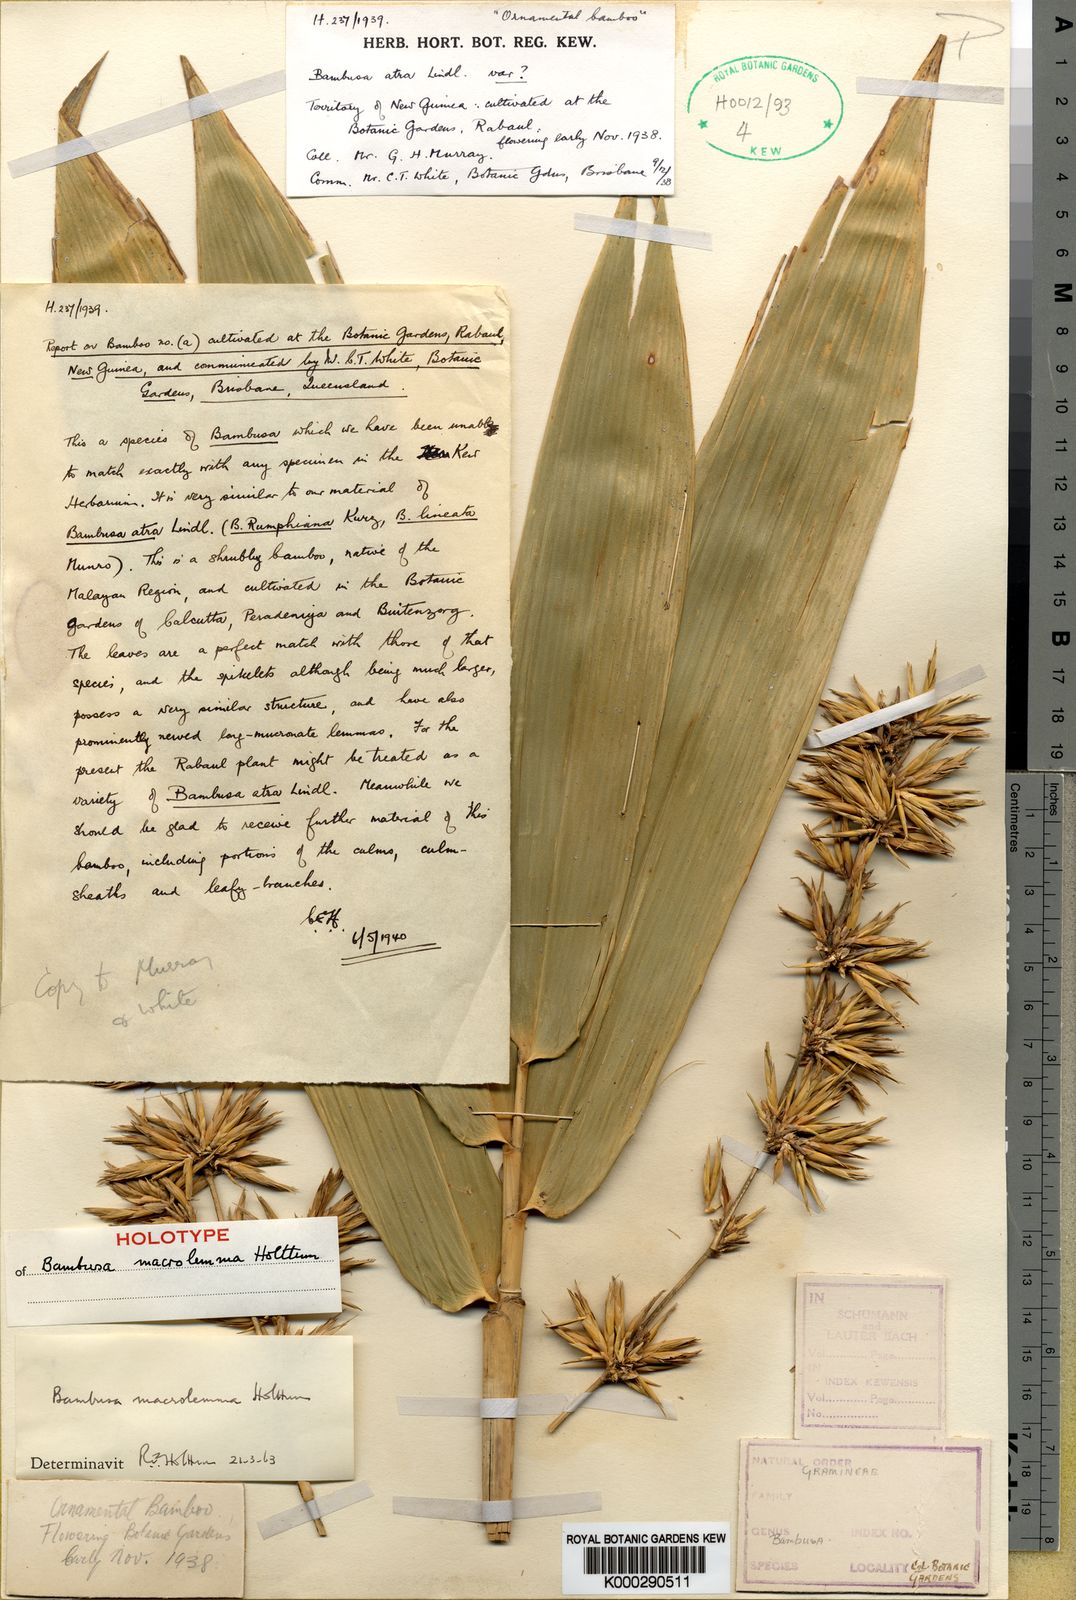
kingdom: Plantae
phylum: Tracheophyta
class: Liliopsida
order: Poales
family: Poaceae
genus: Bambusa
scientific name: Bambusa macrolemma
